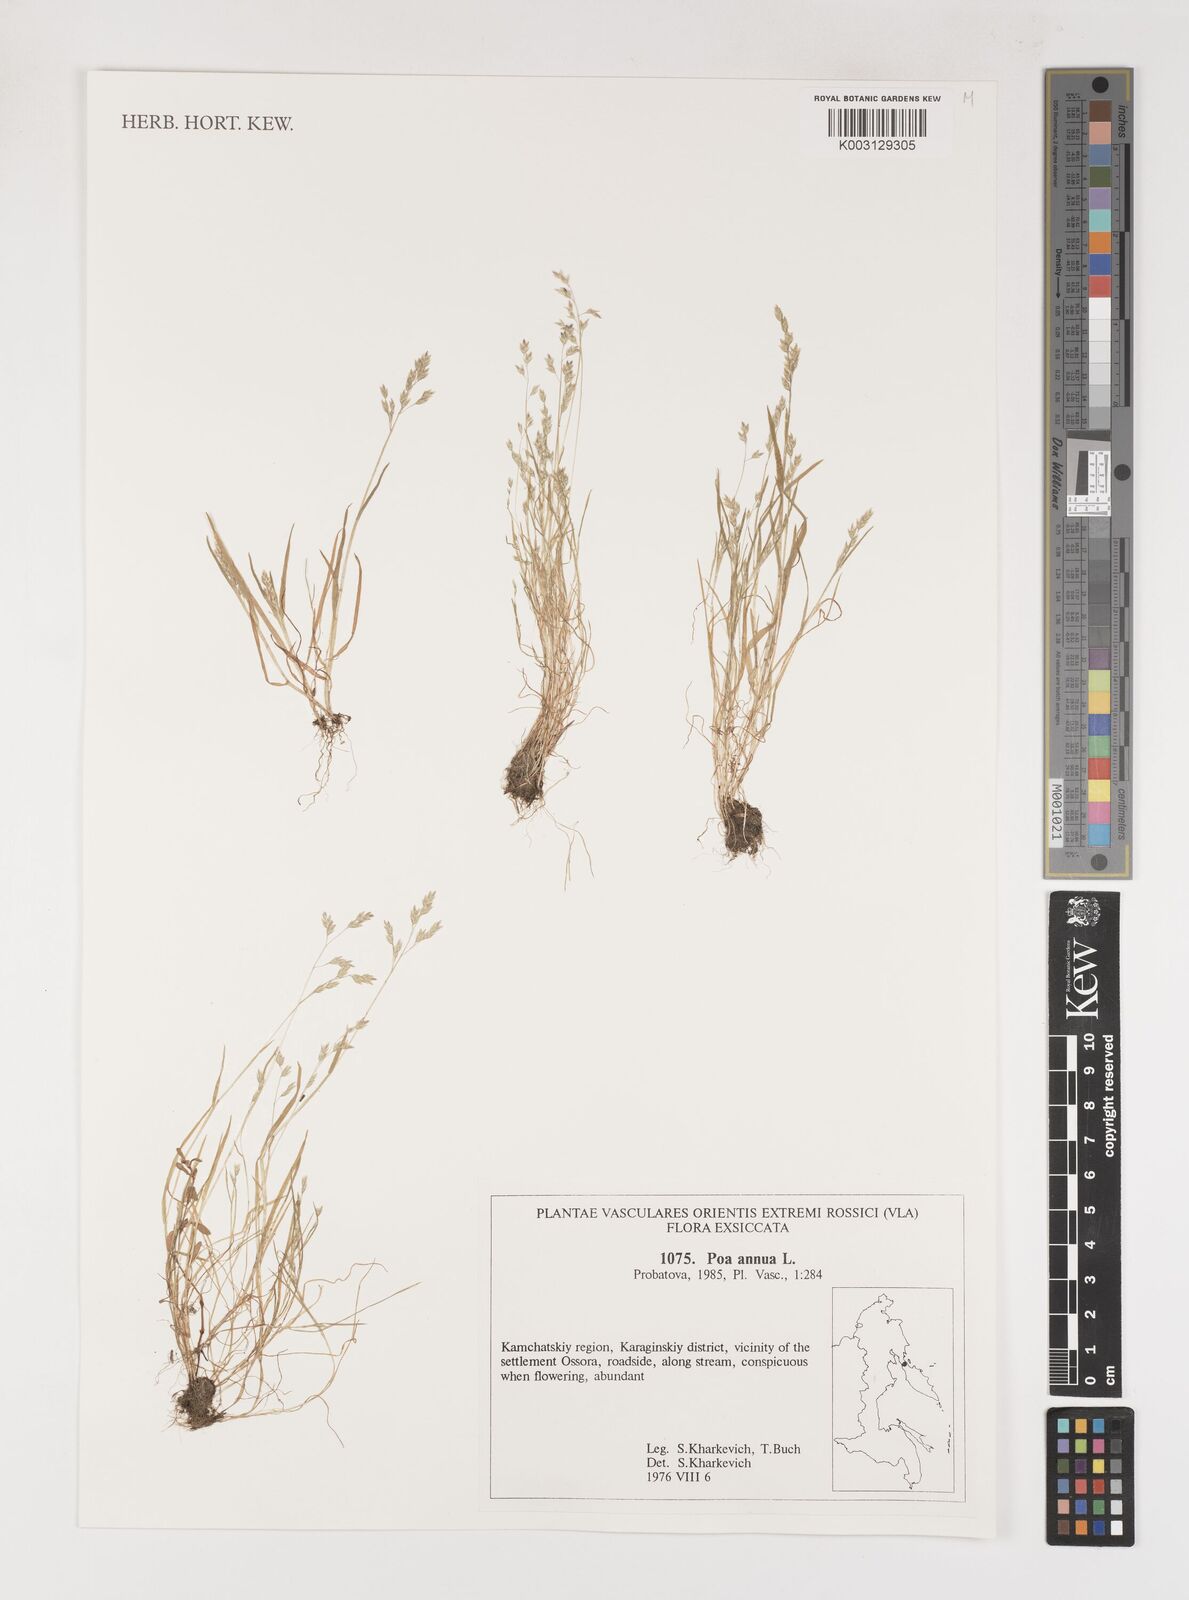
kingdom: Plantae
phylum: Tracheophyta
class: Liliopsida
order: Poales
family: Poaceae
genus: Poa
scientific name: Poa annua
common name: Annual bluegrass
